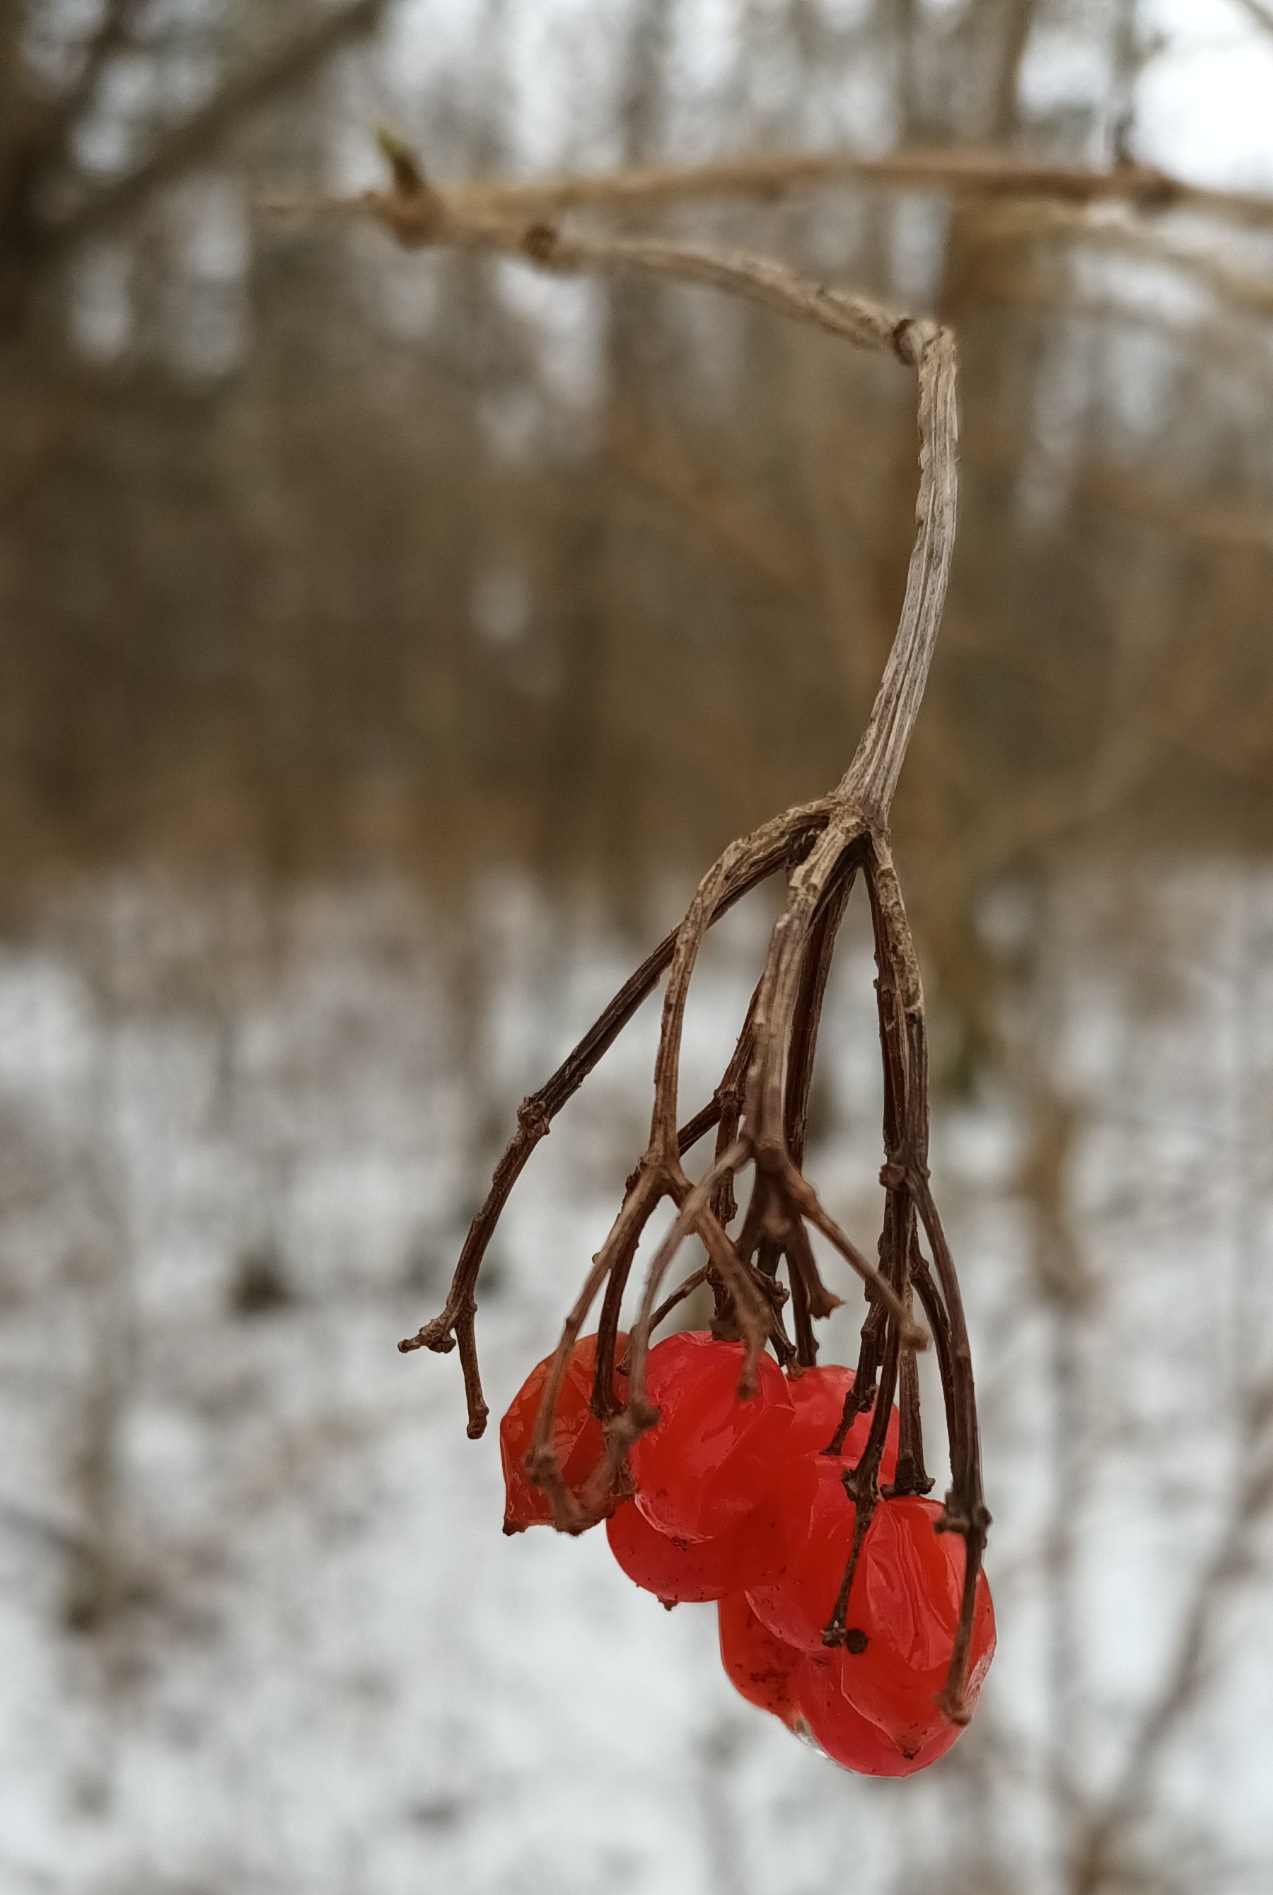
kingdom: Plantae
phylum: Tracheophyta
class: Magnoliopsida
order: Dipsacales
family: Viburnaceae
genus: Viburnum
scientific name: Viburnum opulus
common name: Kvalkved
